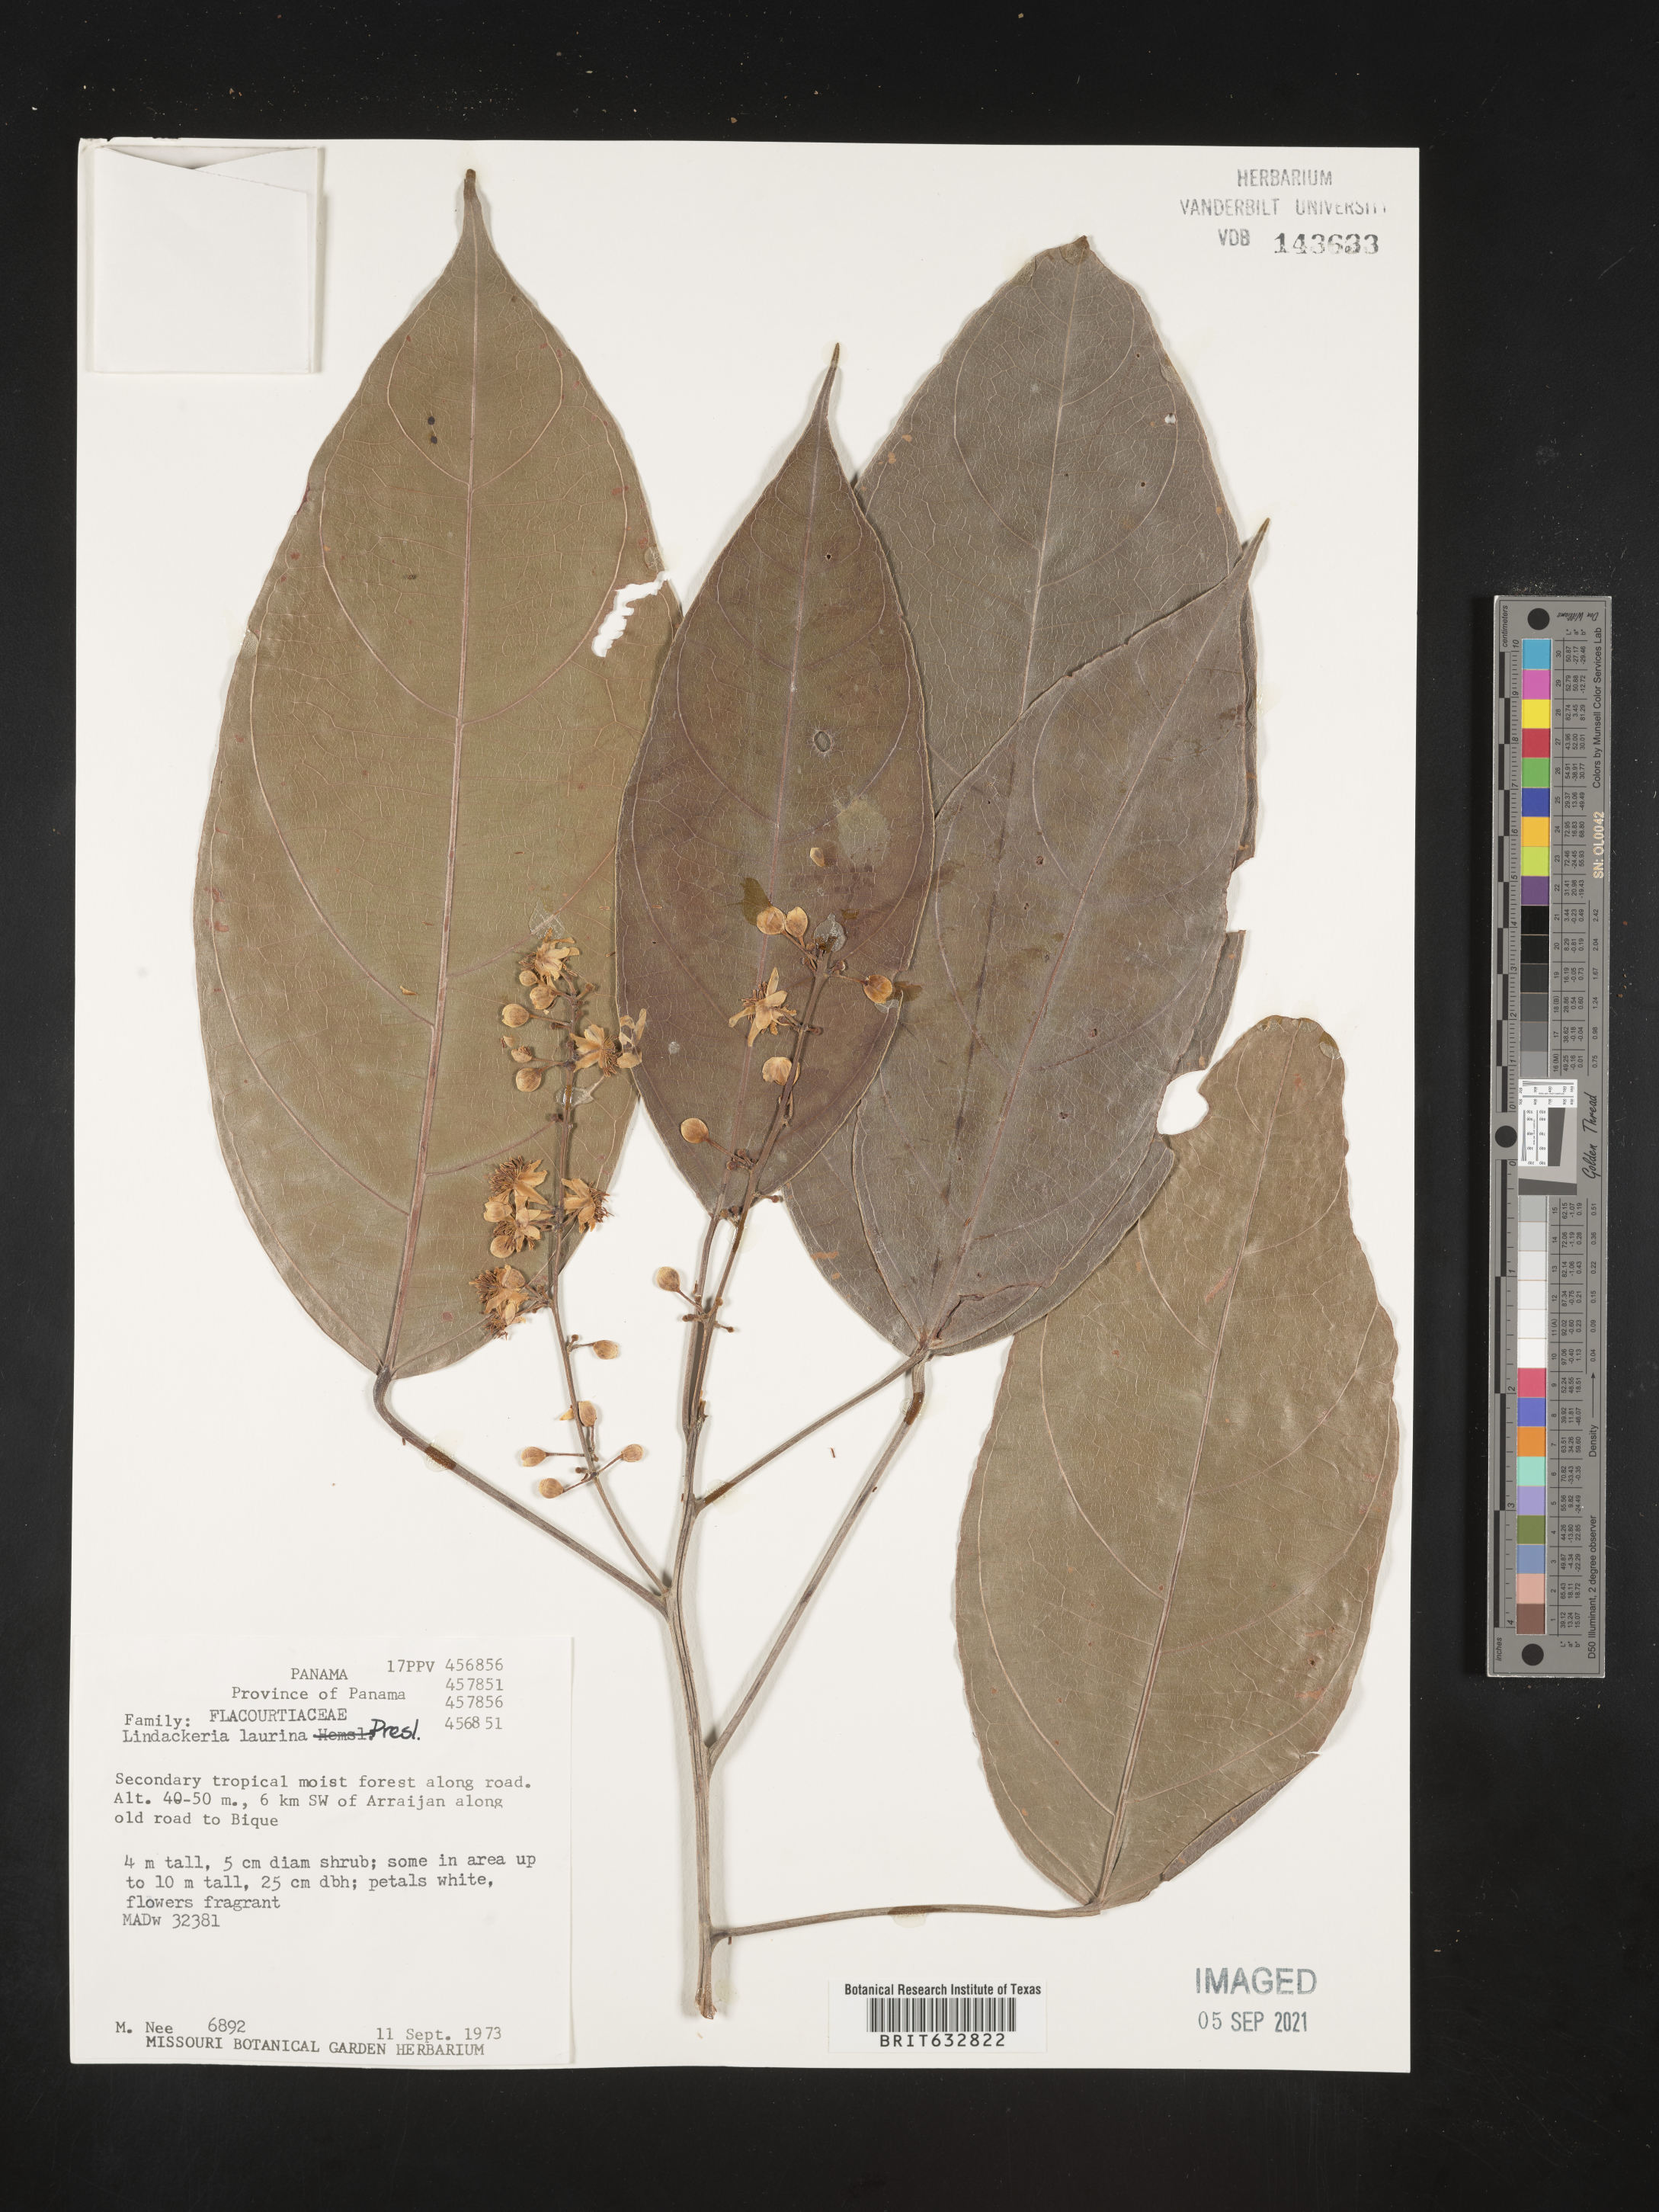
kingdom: Plantae
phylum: Tracheophyta
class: Magnoliopsida
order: Malpighiales
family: Achariaceae
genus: Lindackeria
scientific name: Lindackeria laurina
